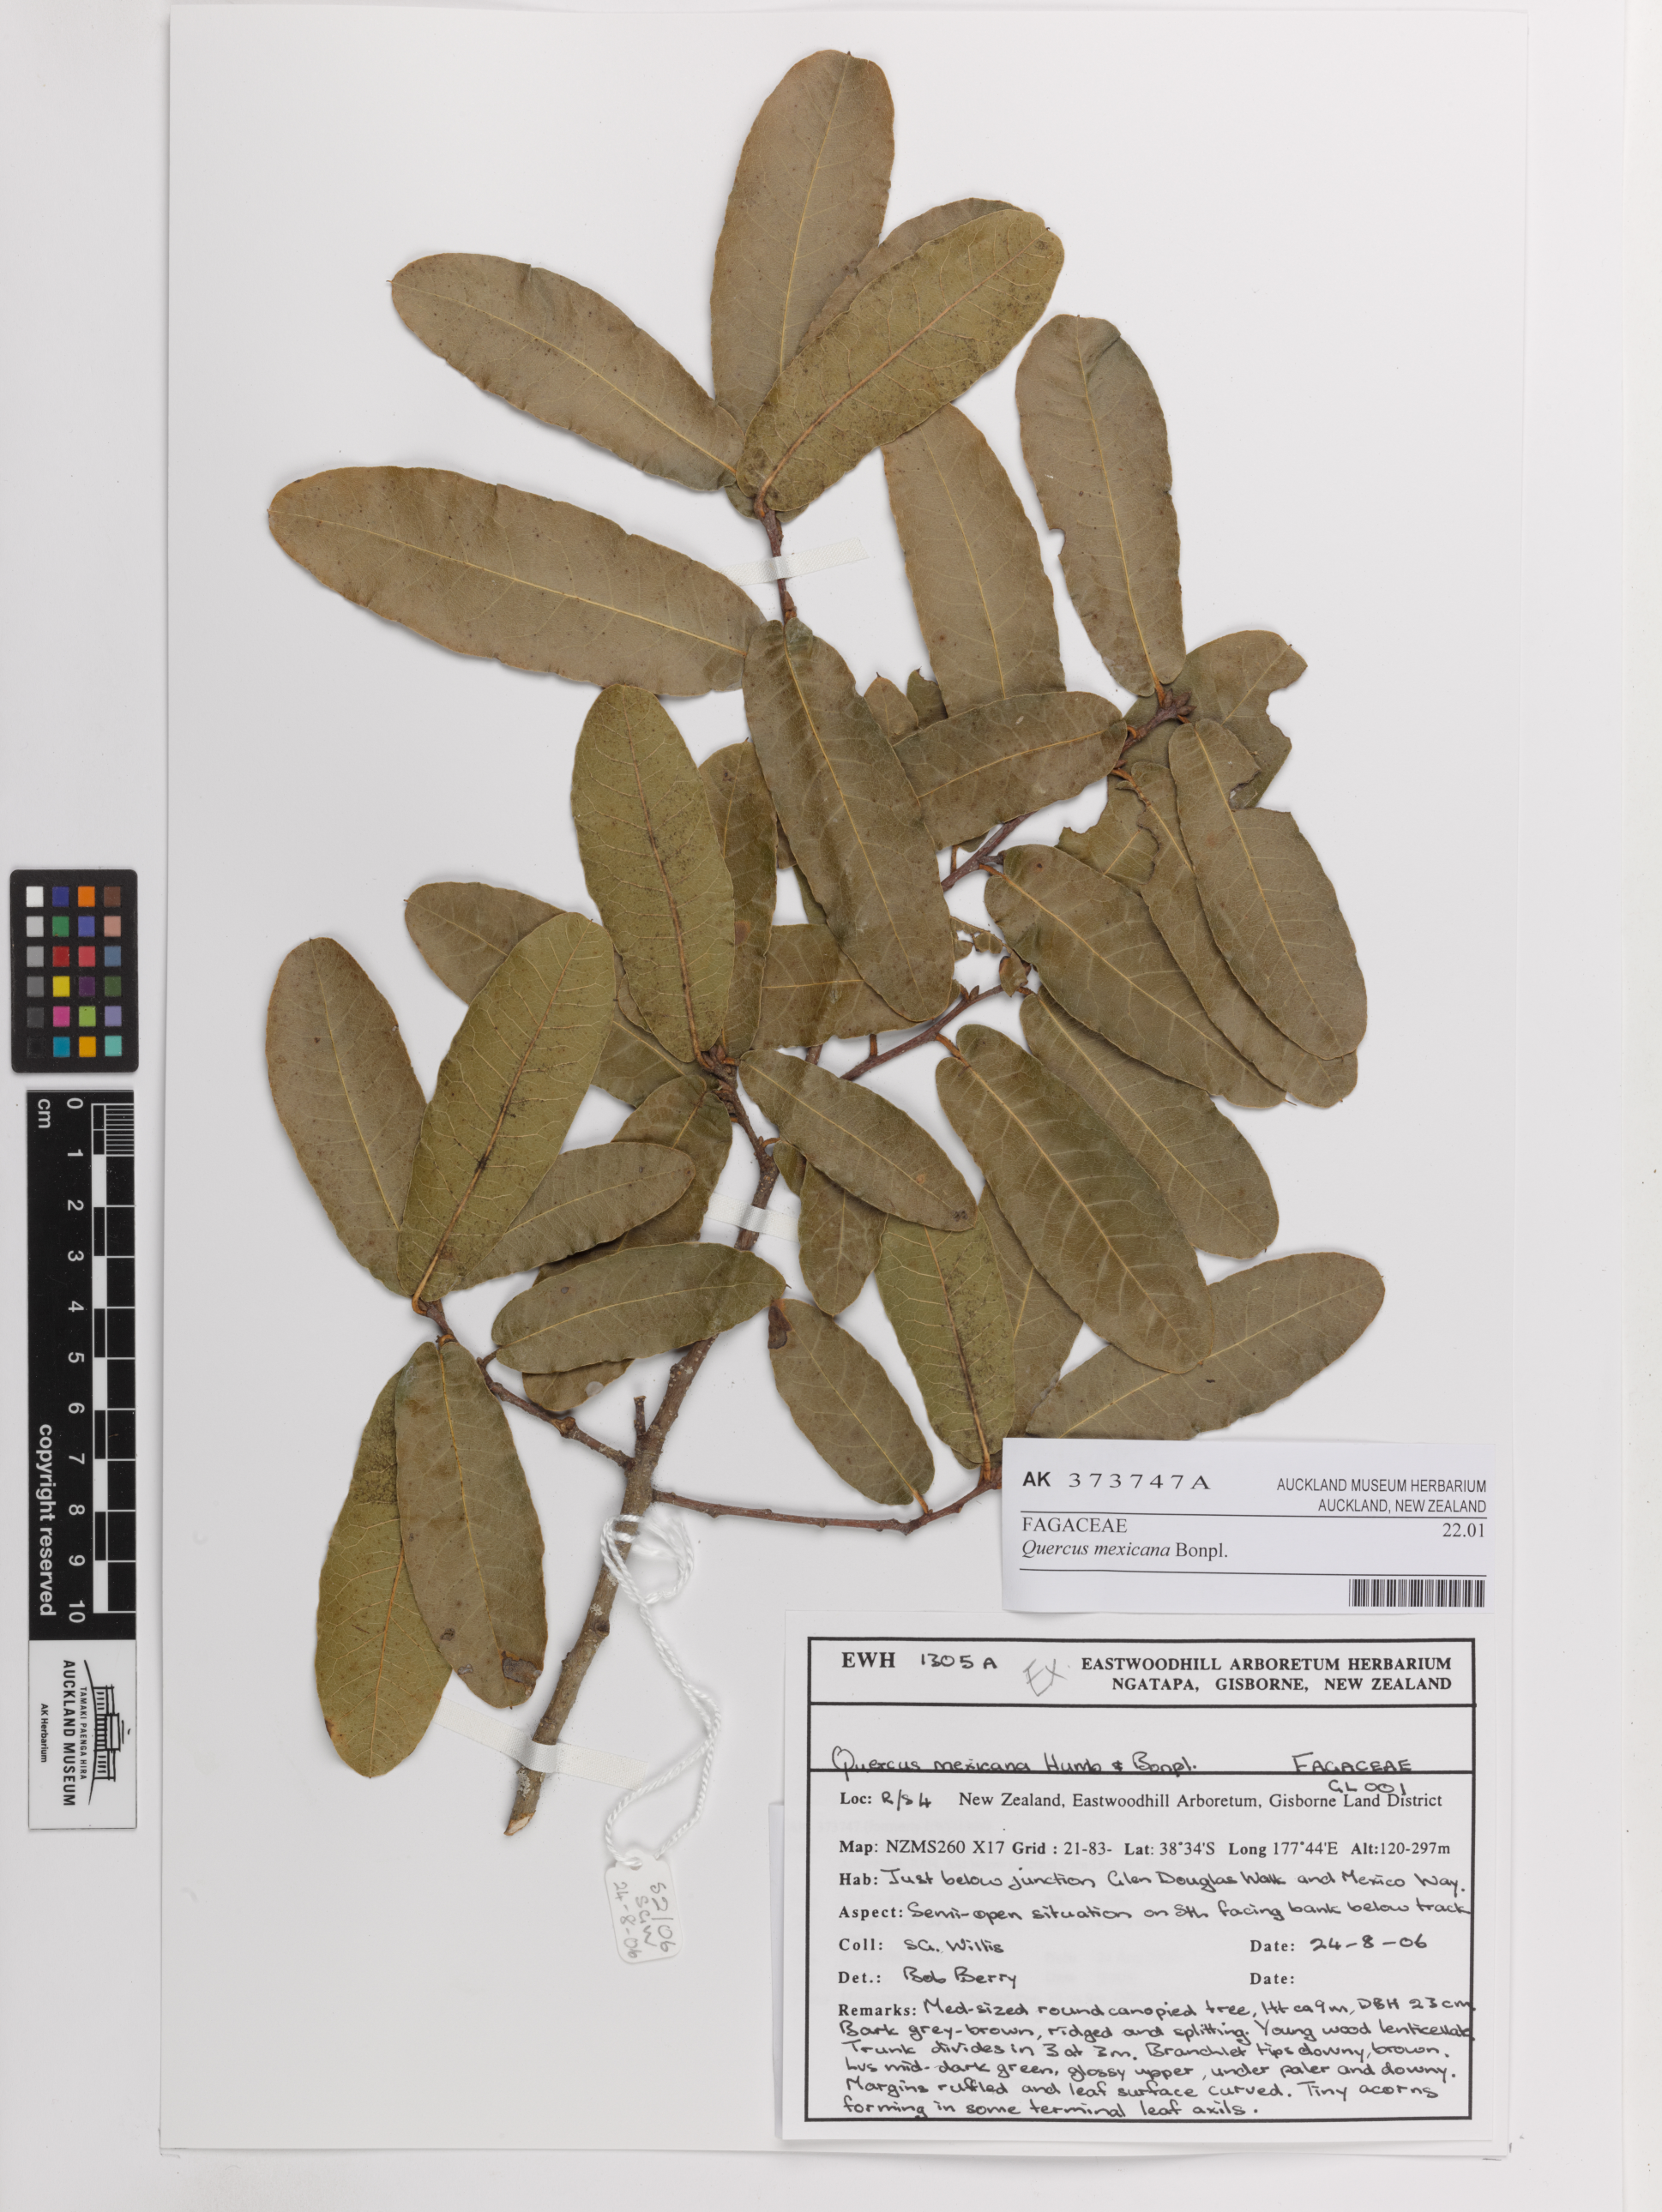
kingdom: Plantae
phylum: Tracheophyta
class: Magnoliopsida
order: Fagales
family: Fagaceae
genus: Quercus
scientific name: Quercus mexicana
